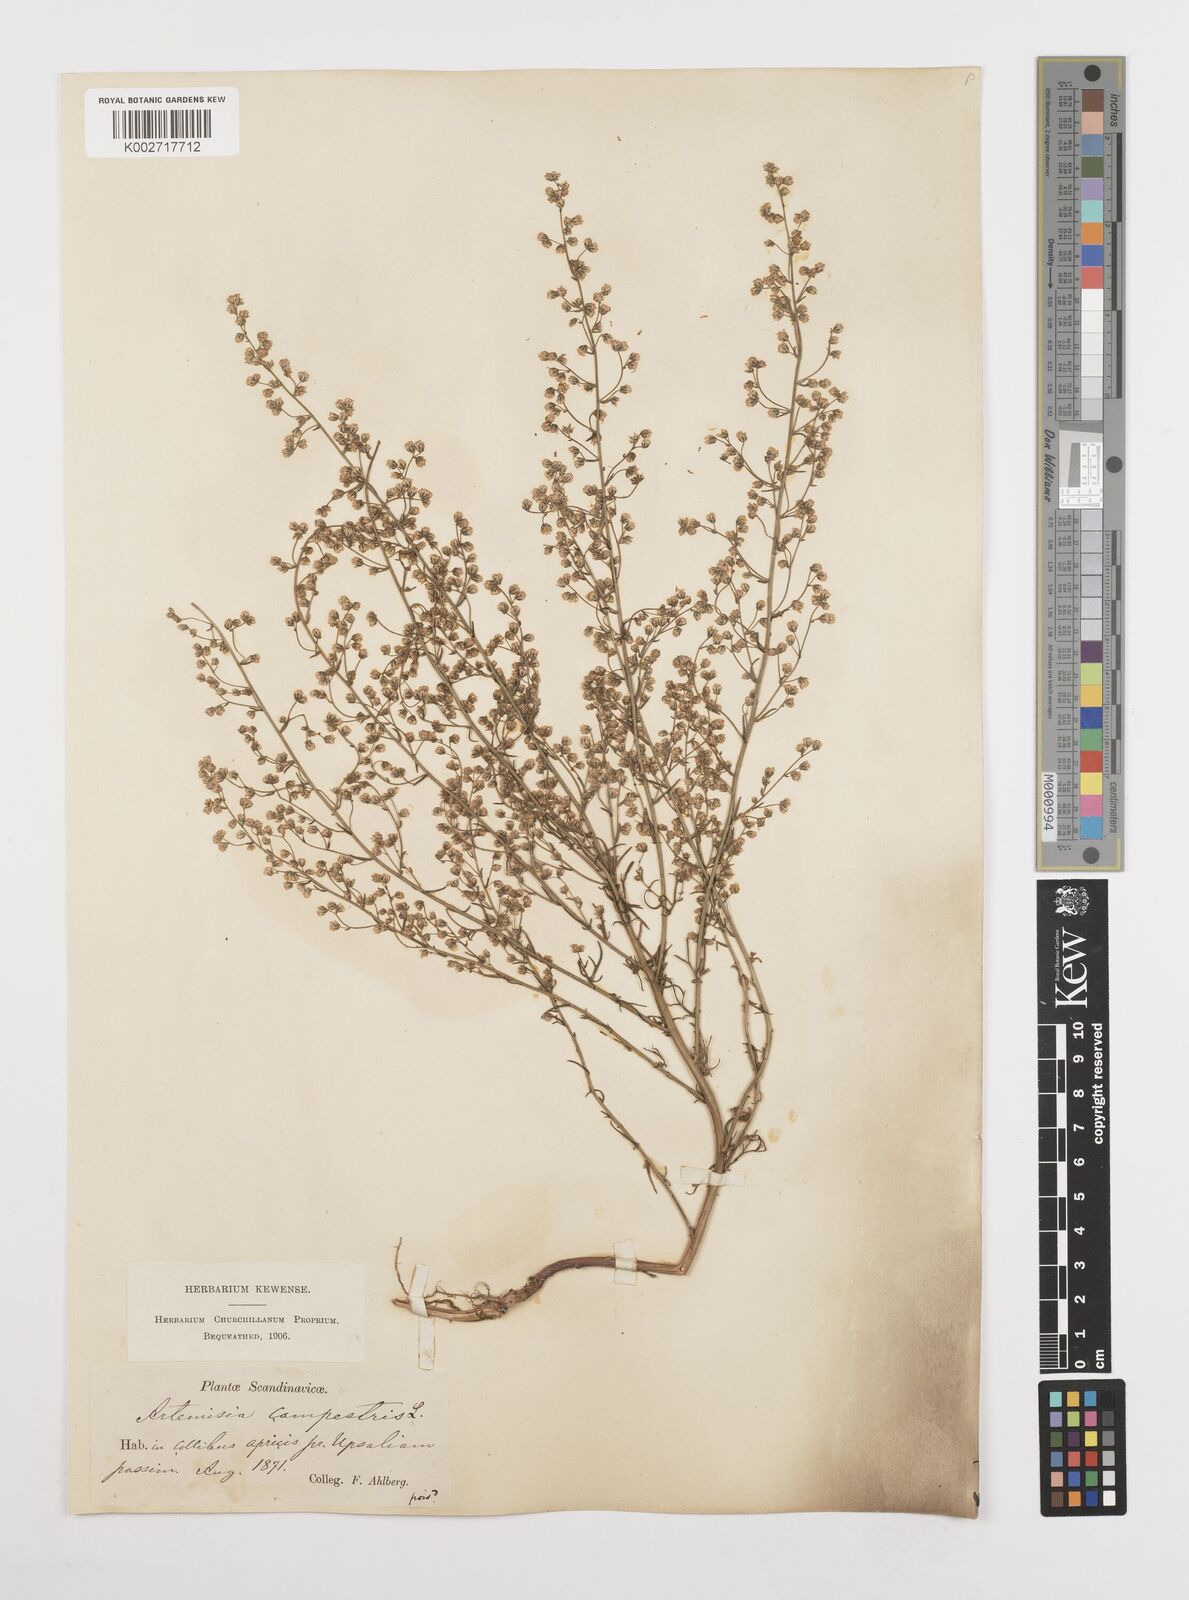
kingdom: Plantae
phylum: Tracheophyta
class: Magnoliopsida
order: Asterales
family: Asteraceae
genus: Artemisia
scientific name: Artemisia campestris
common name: Field wormwood
